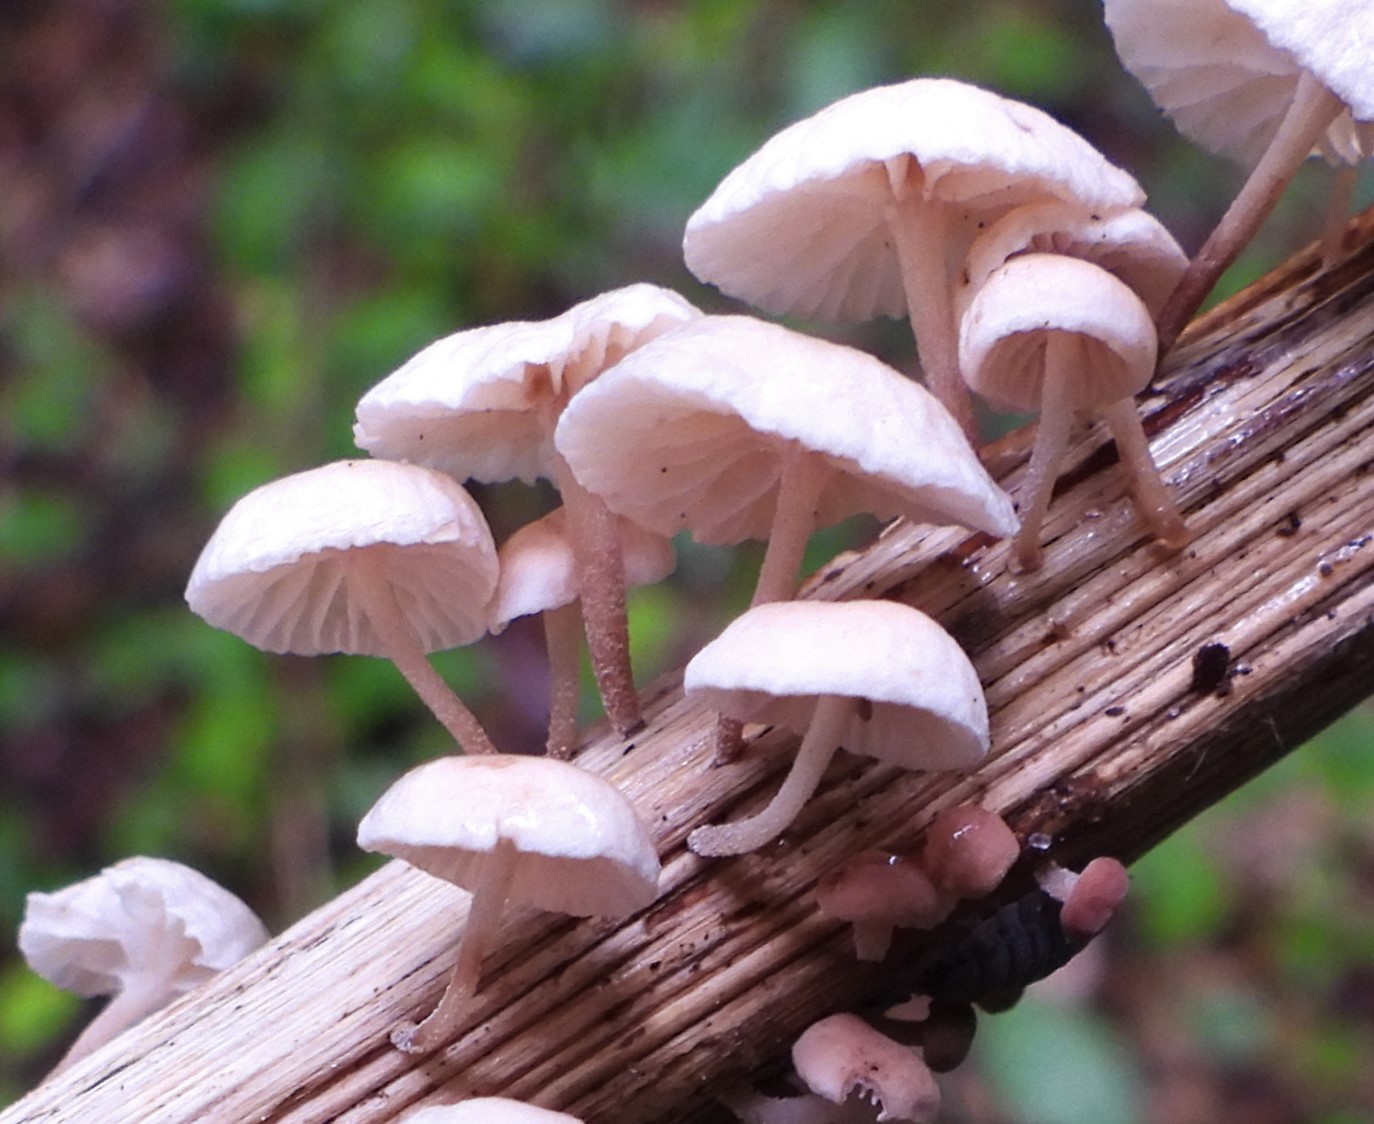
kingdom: Fungi
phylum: Basidiomycota
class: Agaricomycetes
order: Agaricales
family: Omphalotaceae
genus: Collybiopsis
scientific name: Collybiopsis ramealis
